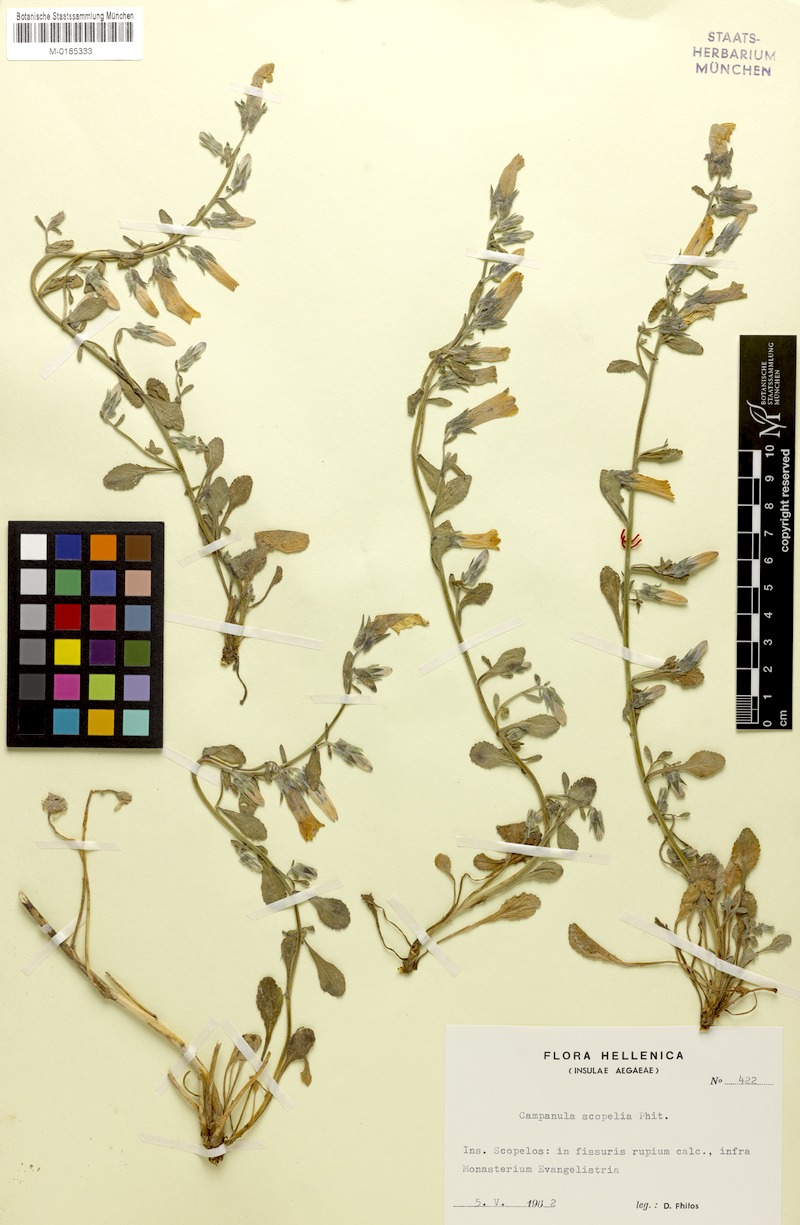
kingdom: Plantae
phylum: Tracheophyta
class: Magnoliopsida
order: Asterales
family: Campanulaceae
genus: Campanula
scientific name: Campanula scopelia
